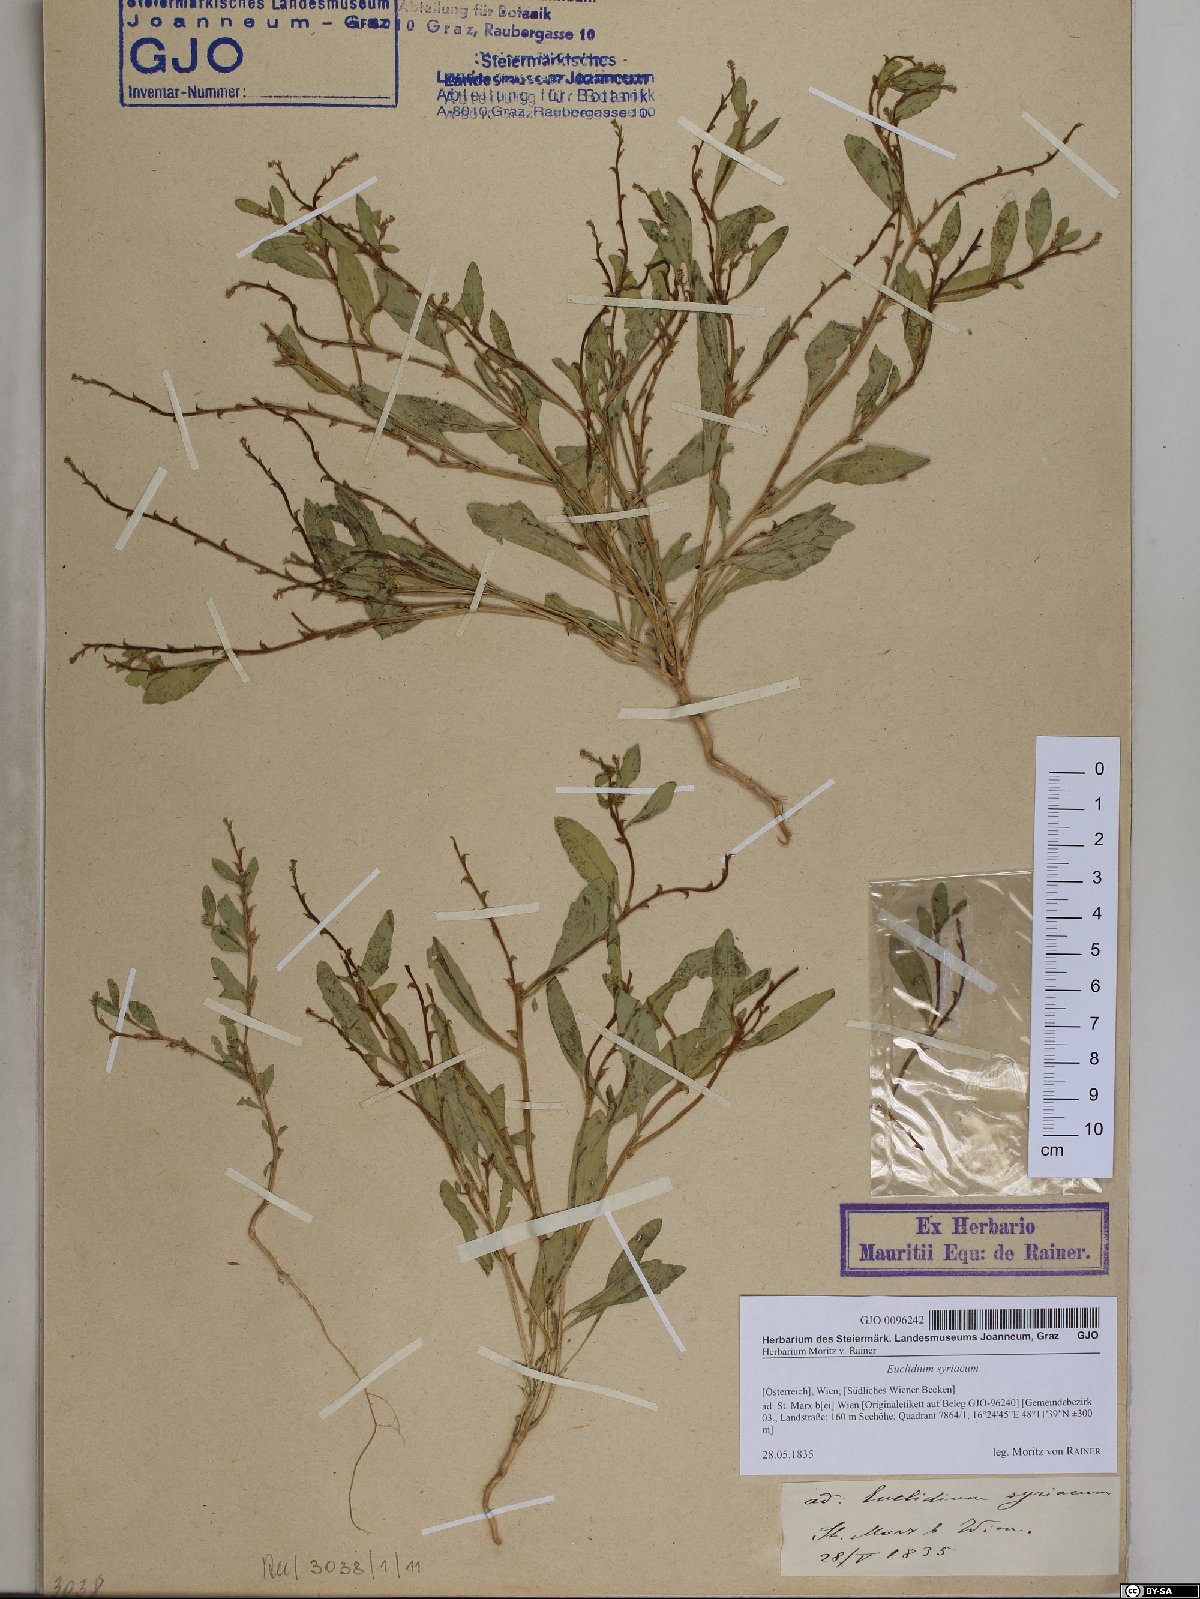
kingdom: Plantae
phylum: Tracheophyta
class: Magnoliopsida
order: Brassicales
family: Brassicaceae
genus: Euclidium
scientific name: Euclidium syriacum
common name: Syrian mustard
